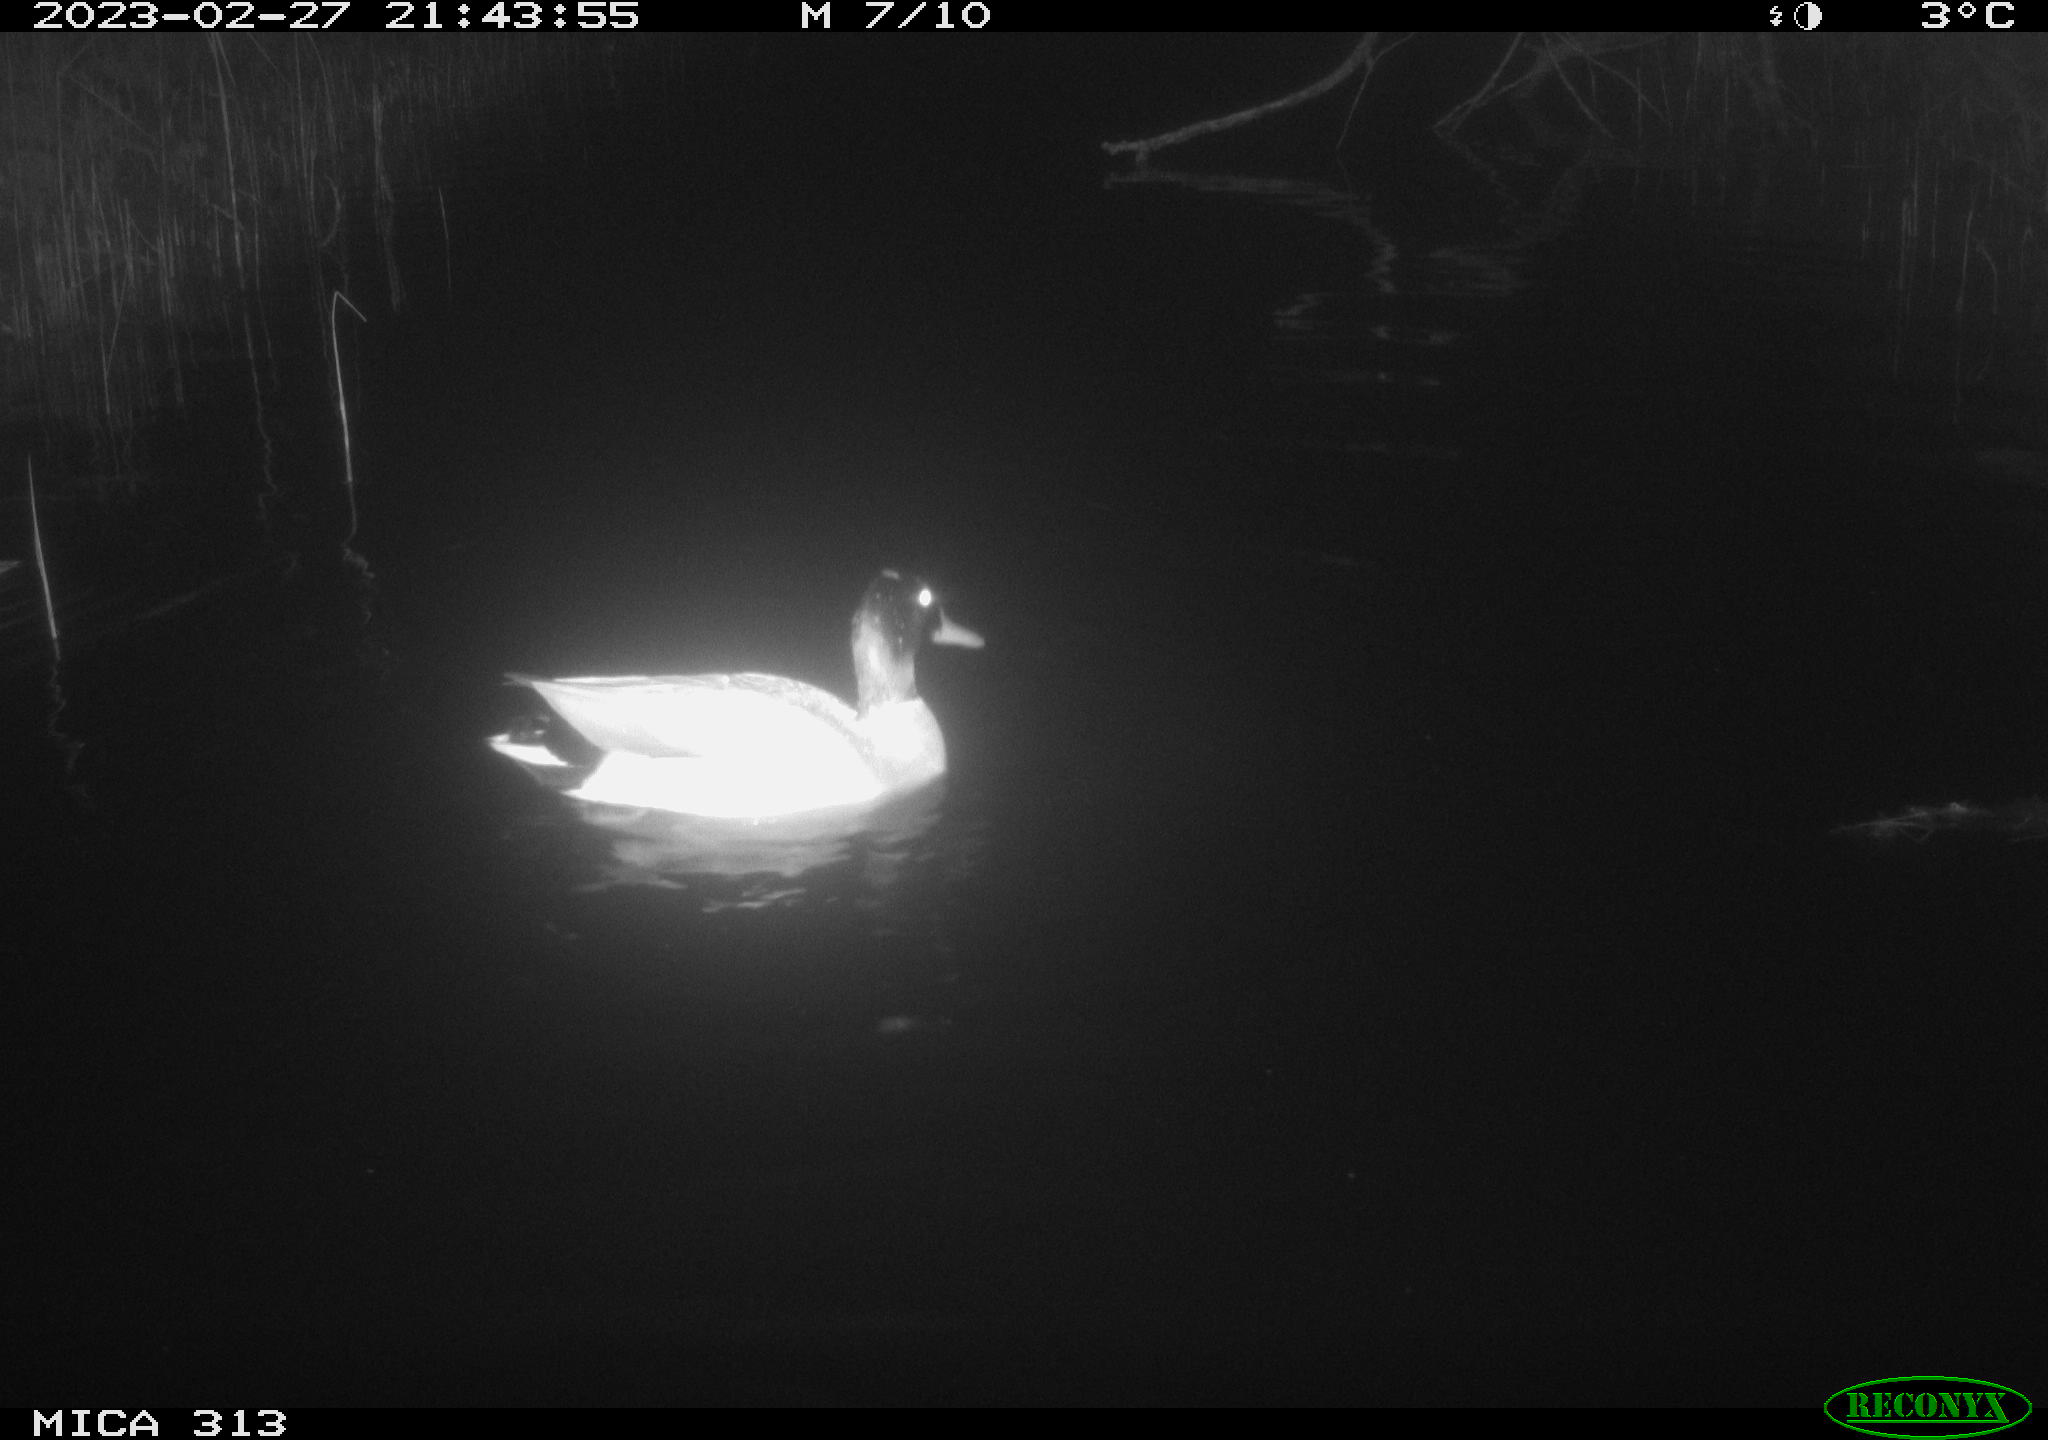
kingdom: Animalia
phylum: Chordata
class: Aves
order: Anseriformes
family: Anatidae
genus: Anas
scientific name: Anas
